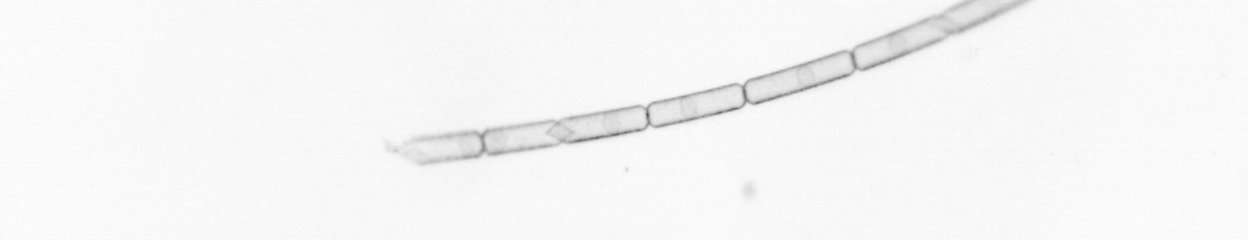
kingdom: Chromista
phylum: Ochrophyta
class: Bacillariophyceae
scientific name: Bacillariophyceae
